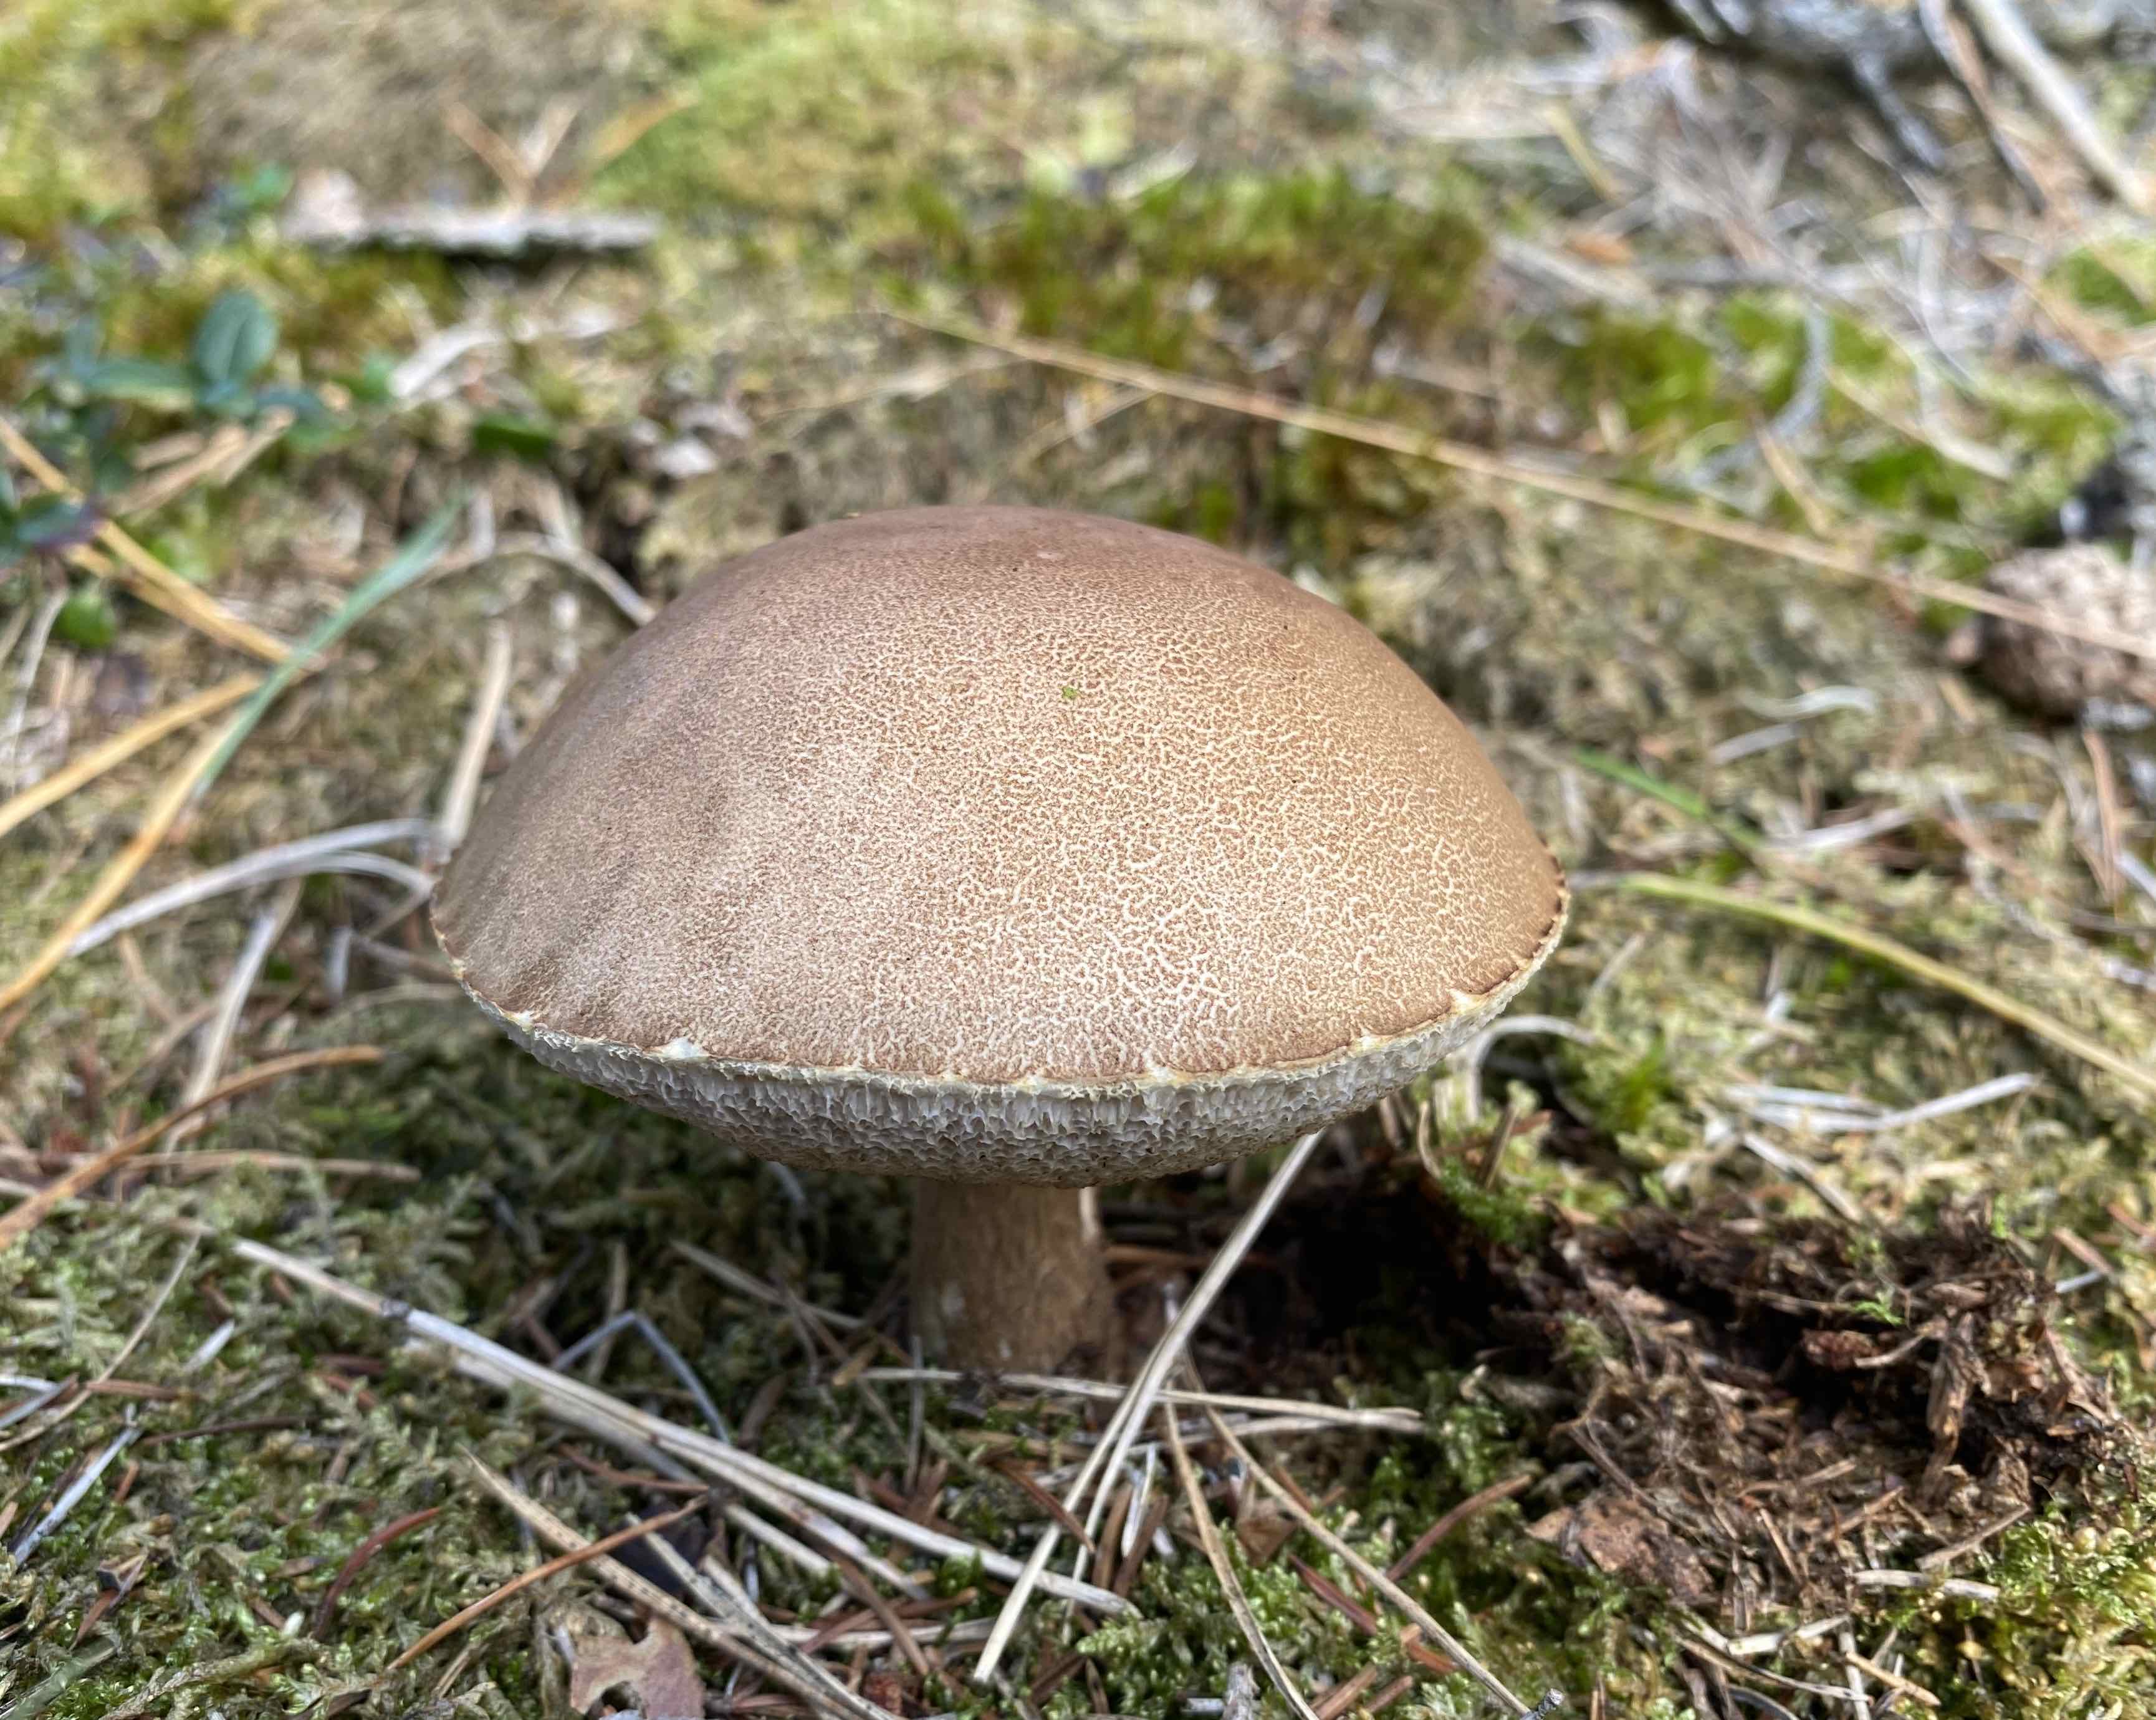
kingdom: Fungi
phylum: Basidiomycota
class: Agaricomycetes
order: Boletales
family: Boletaceae
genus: Leccinum
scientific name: Leccinum scabrum
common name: brun skælrørhat
